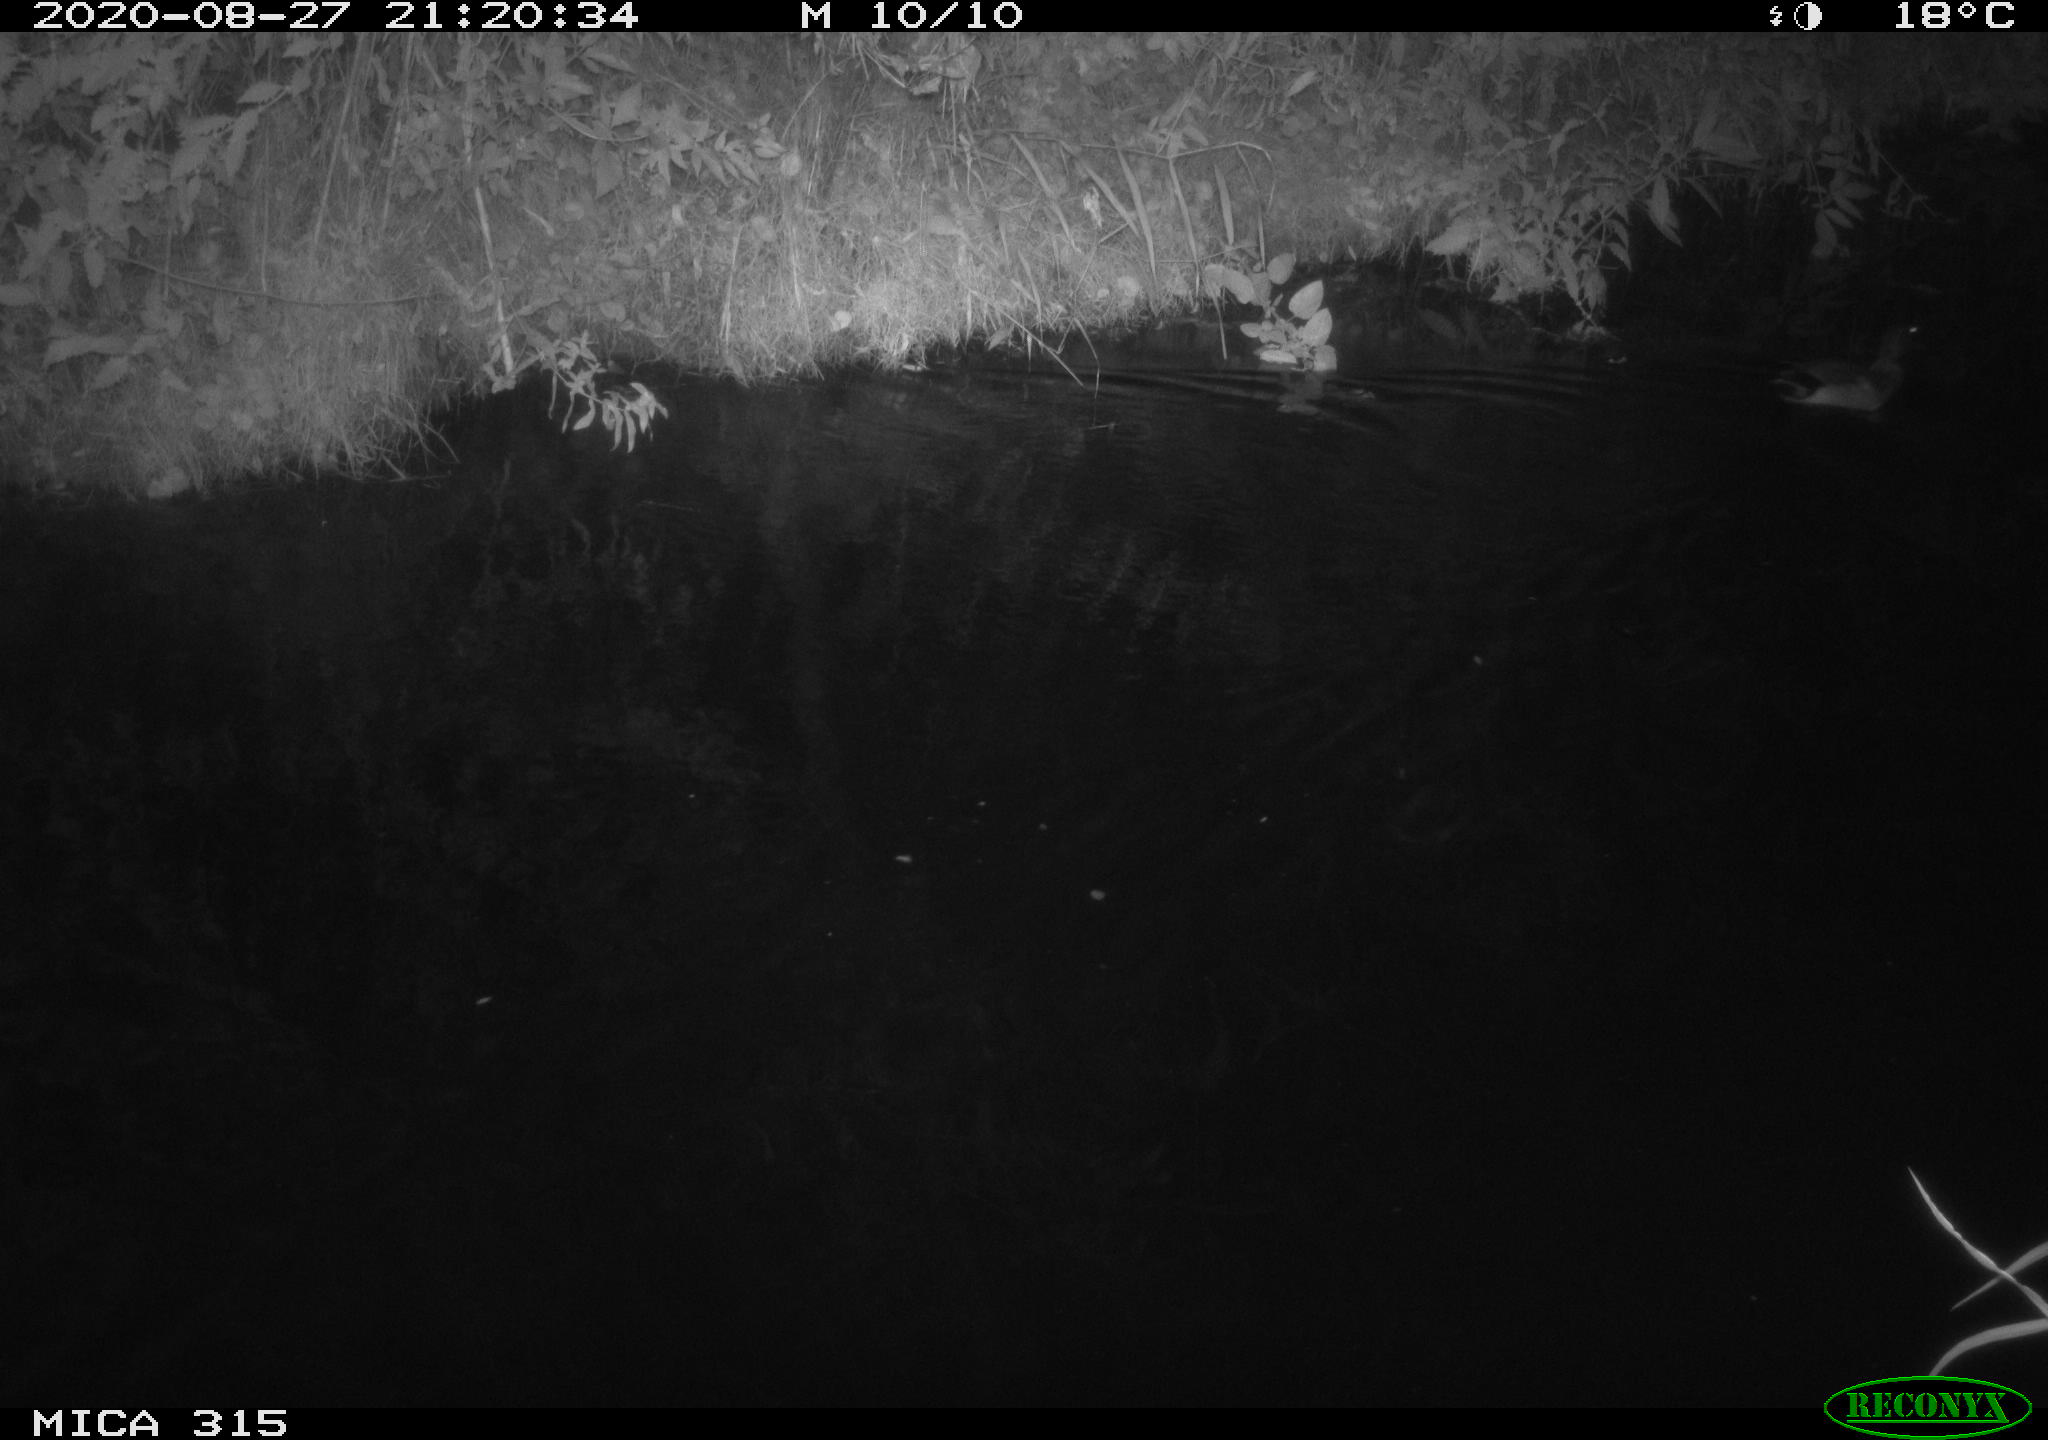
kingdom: Animalia
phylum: Chordata
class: Aves
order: Anseriformes
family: Anatidae
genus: Anas
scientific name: Anas platyrhynchos
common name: Mallard
